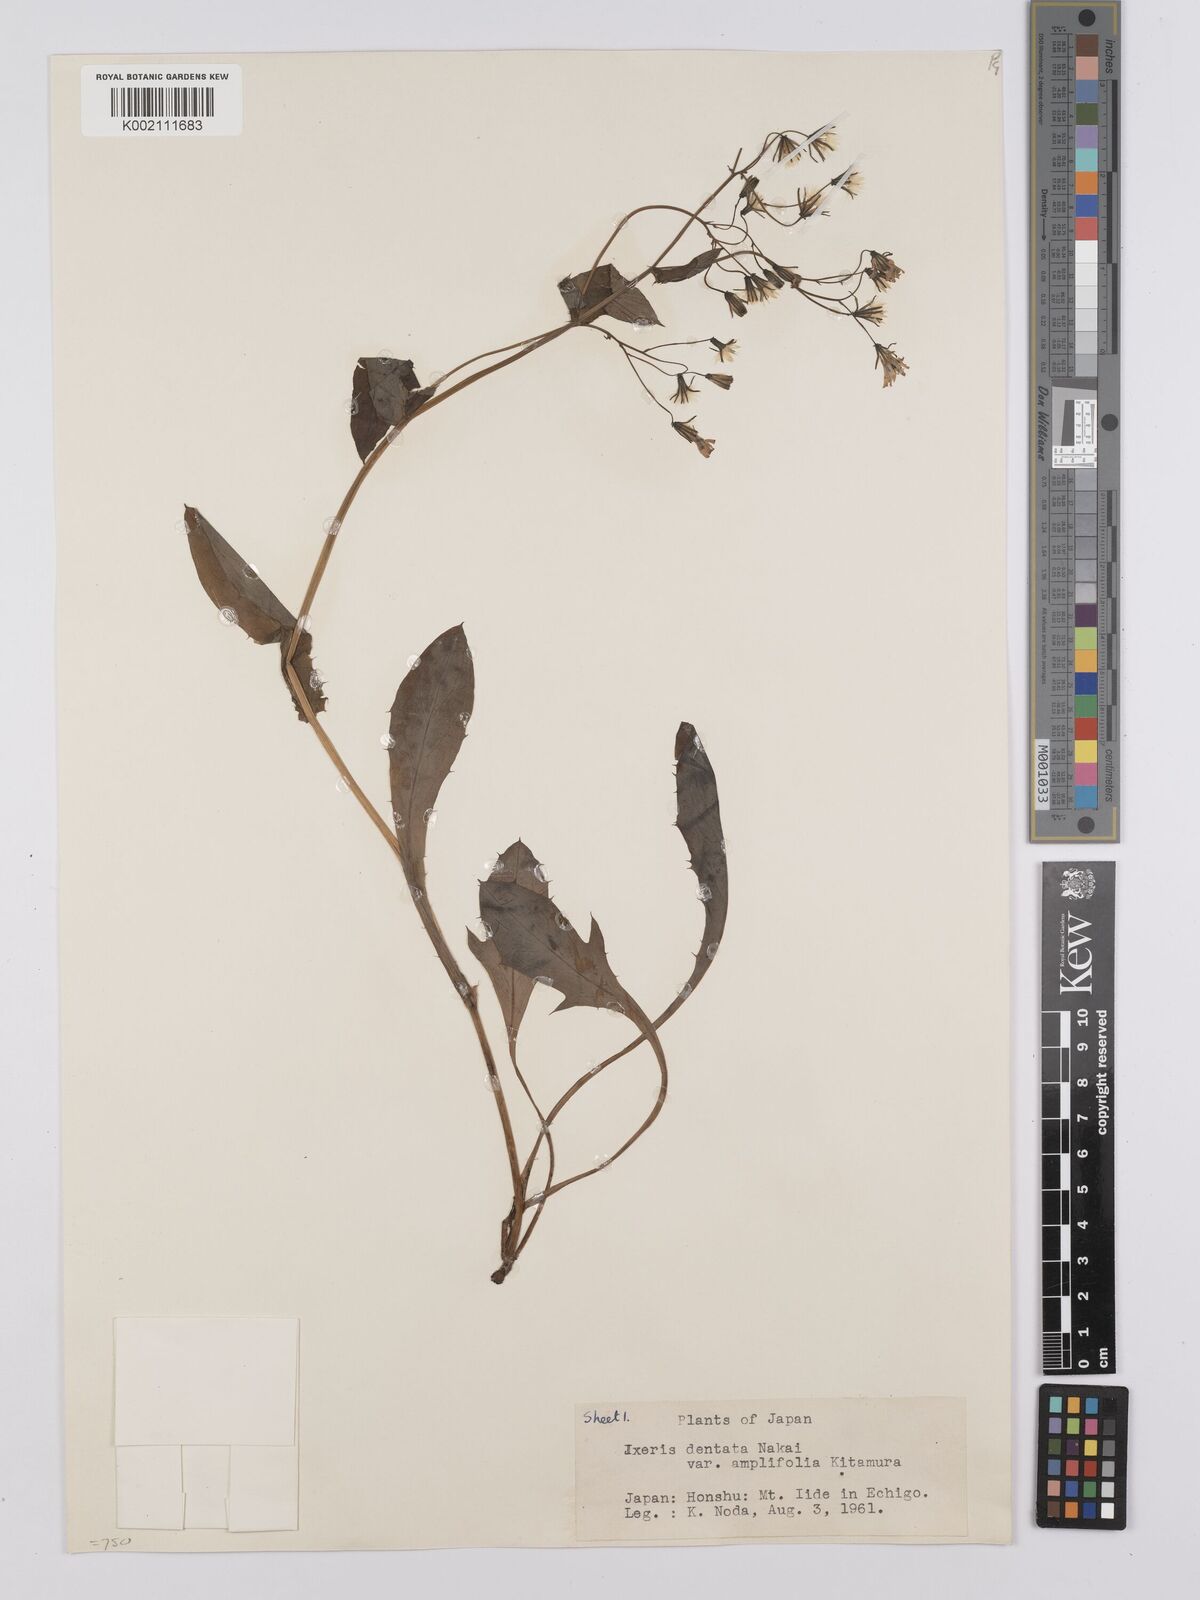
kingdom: Plantae
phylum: Tracheophyta
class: Magnoliopsida
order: Asterales
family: Asteraceae
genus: Ixeridium
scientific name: Ixeridium
